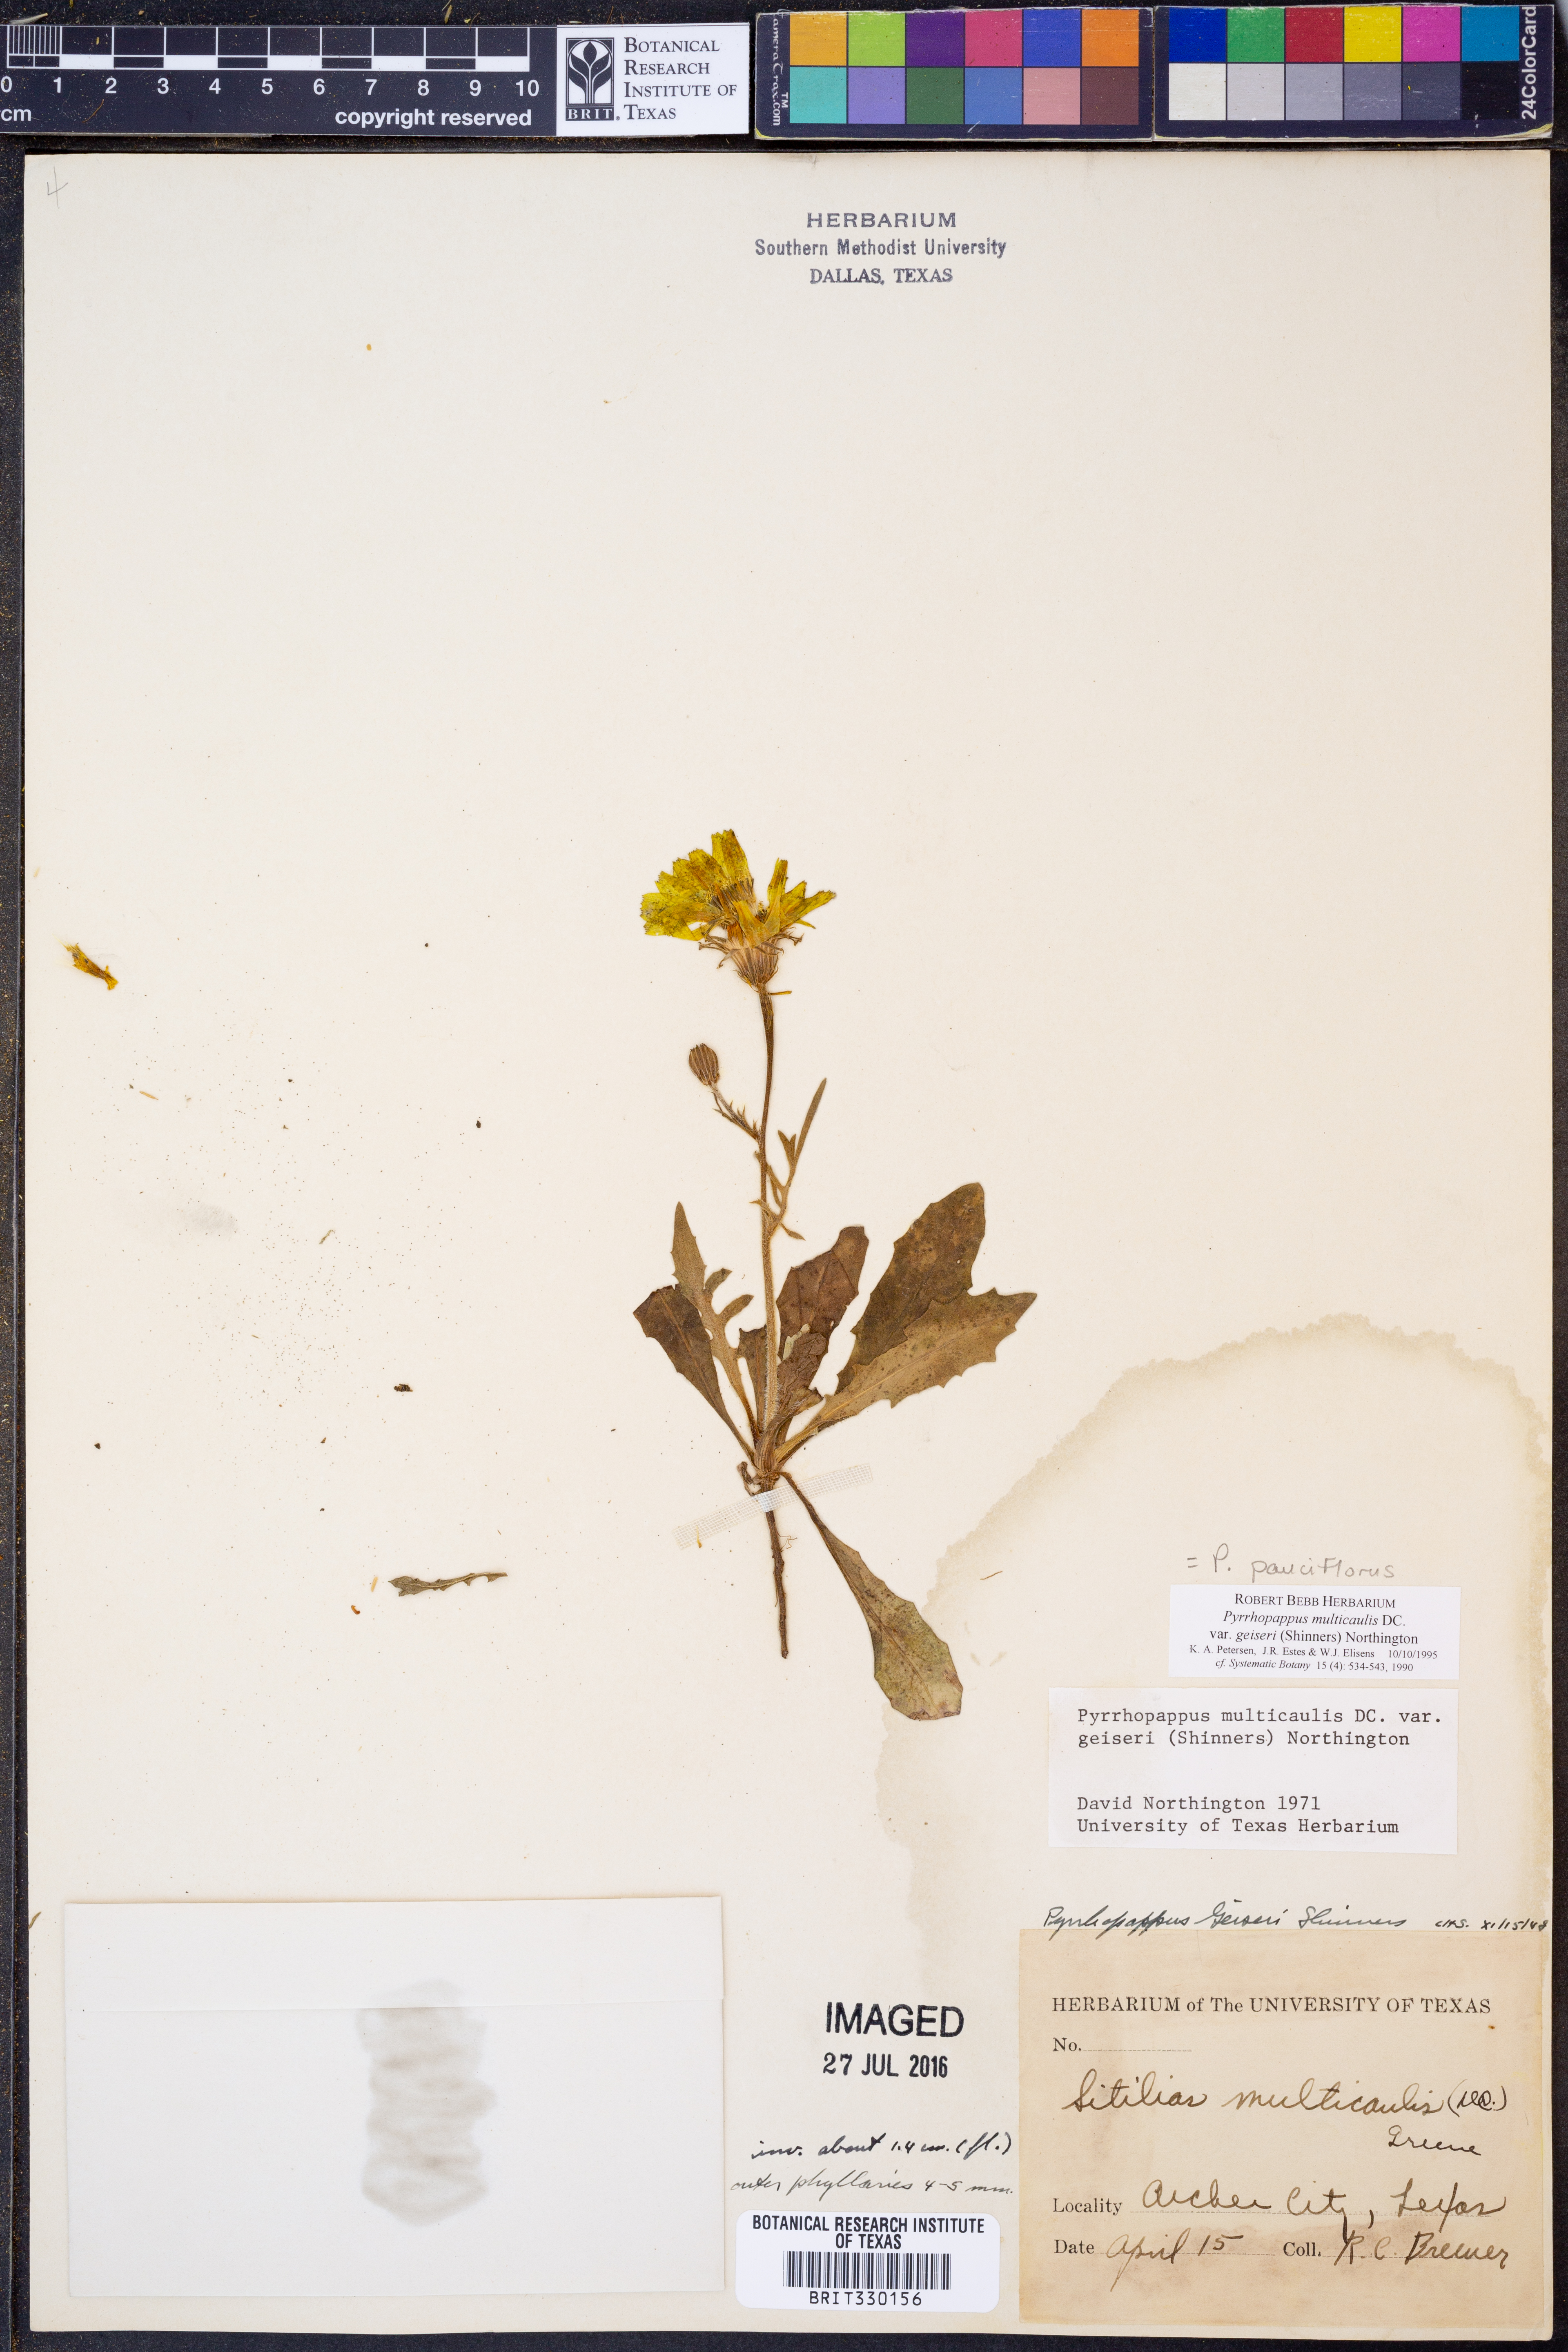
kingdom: Plantae
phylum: Tracheophyta
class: Magnoliopsida
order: Asterales
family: Asteraceae
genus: Pyrrhopappus
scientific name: Pyrrhopappus pauciflorus
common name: Texas false dandelion
